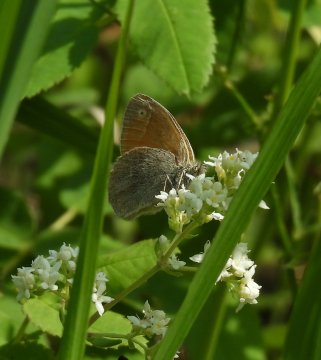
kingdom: Animalia
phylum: Arthropoda
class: Insecta
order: Lepidoptera
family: Nymphalidae
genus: Coenonympha
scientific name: Coenonympha tullia
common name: Large Heath
